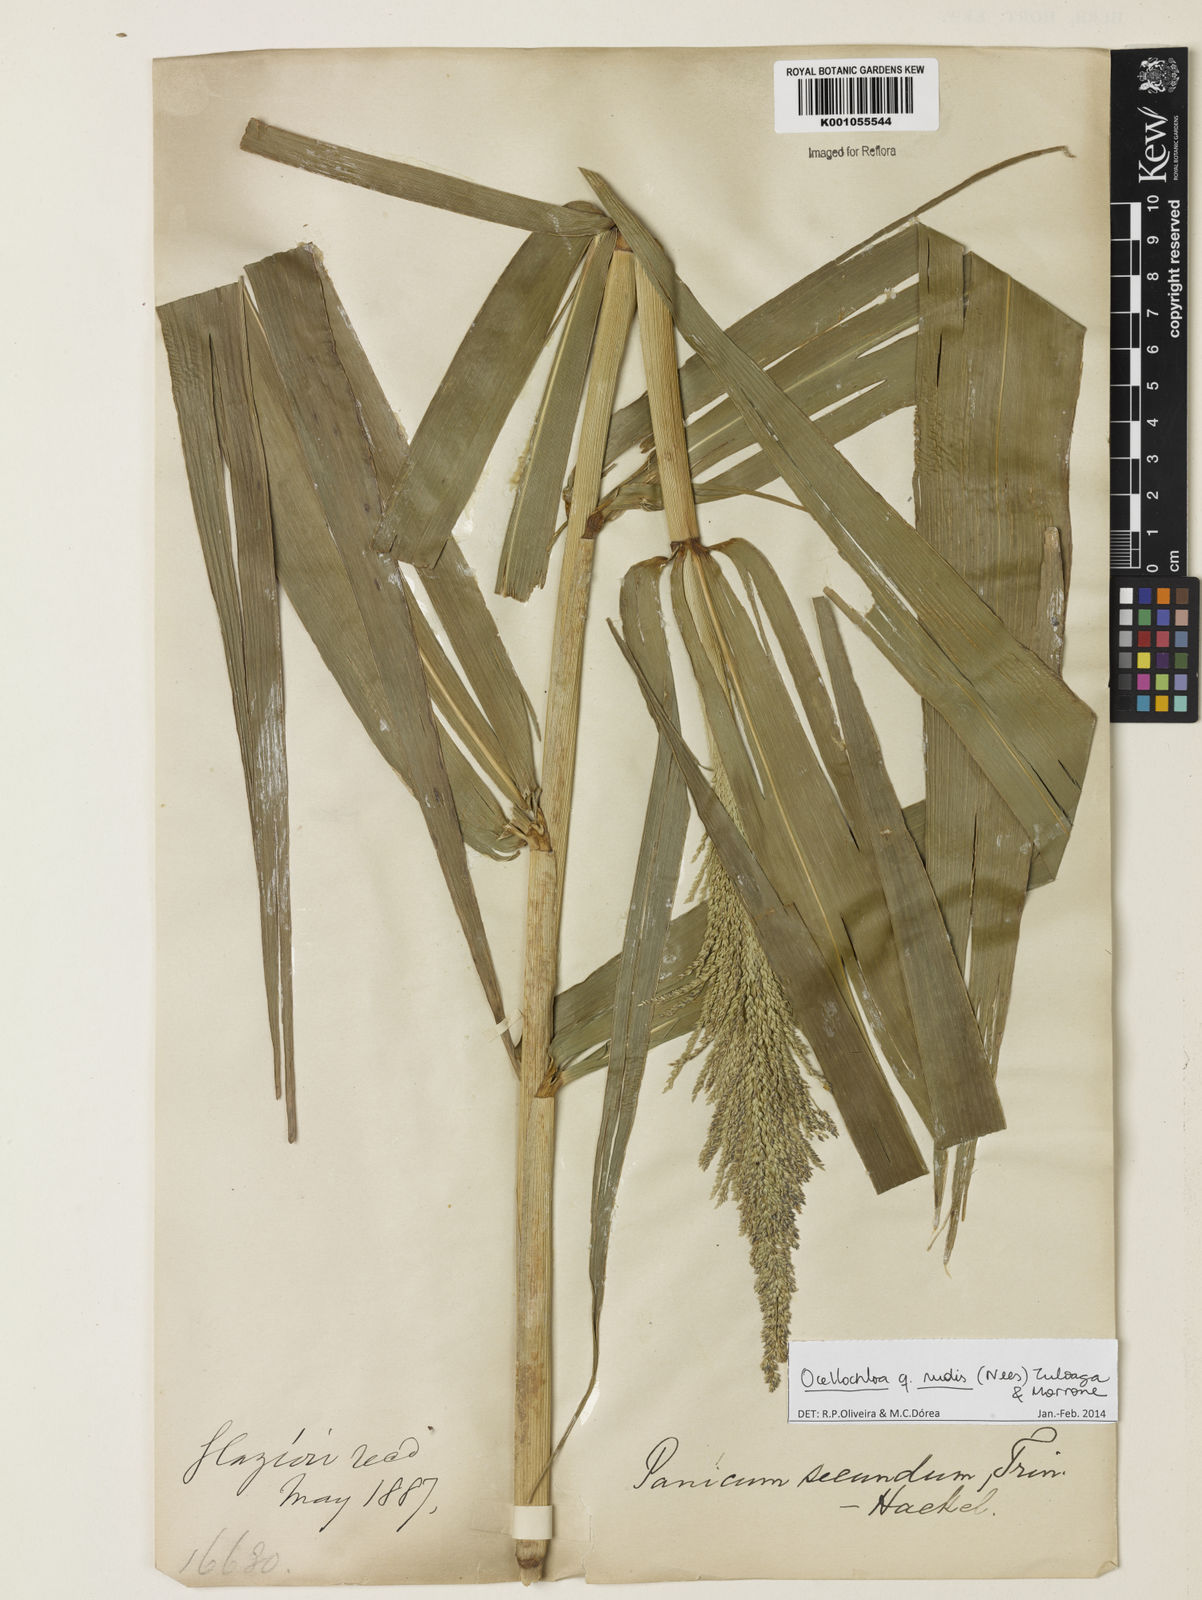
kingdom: Plantae
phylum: Tracheophyta
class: Liliopsida
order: Poales
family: Poaceae
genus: Ocellochloa
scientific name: Ocellochloa rudis
